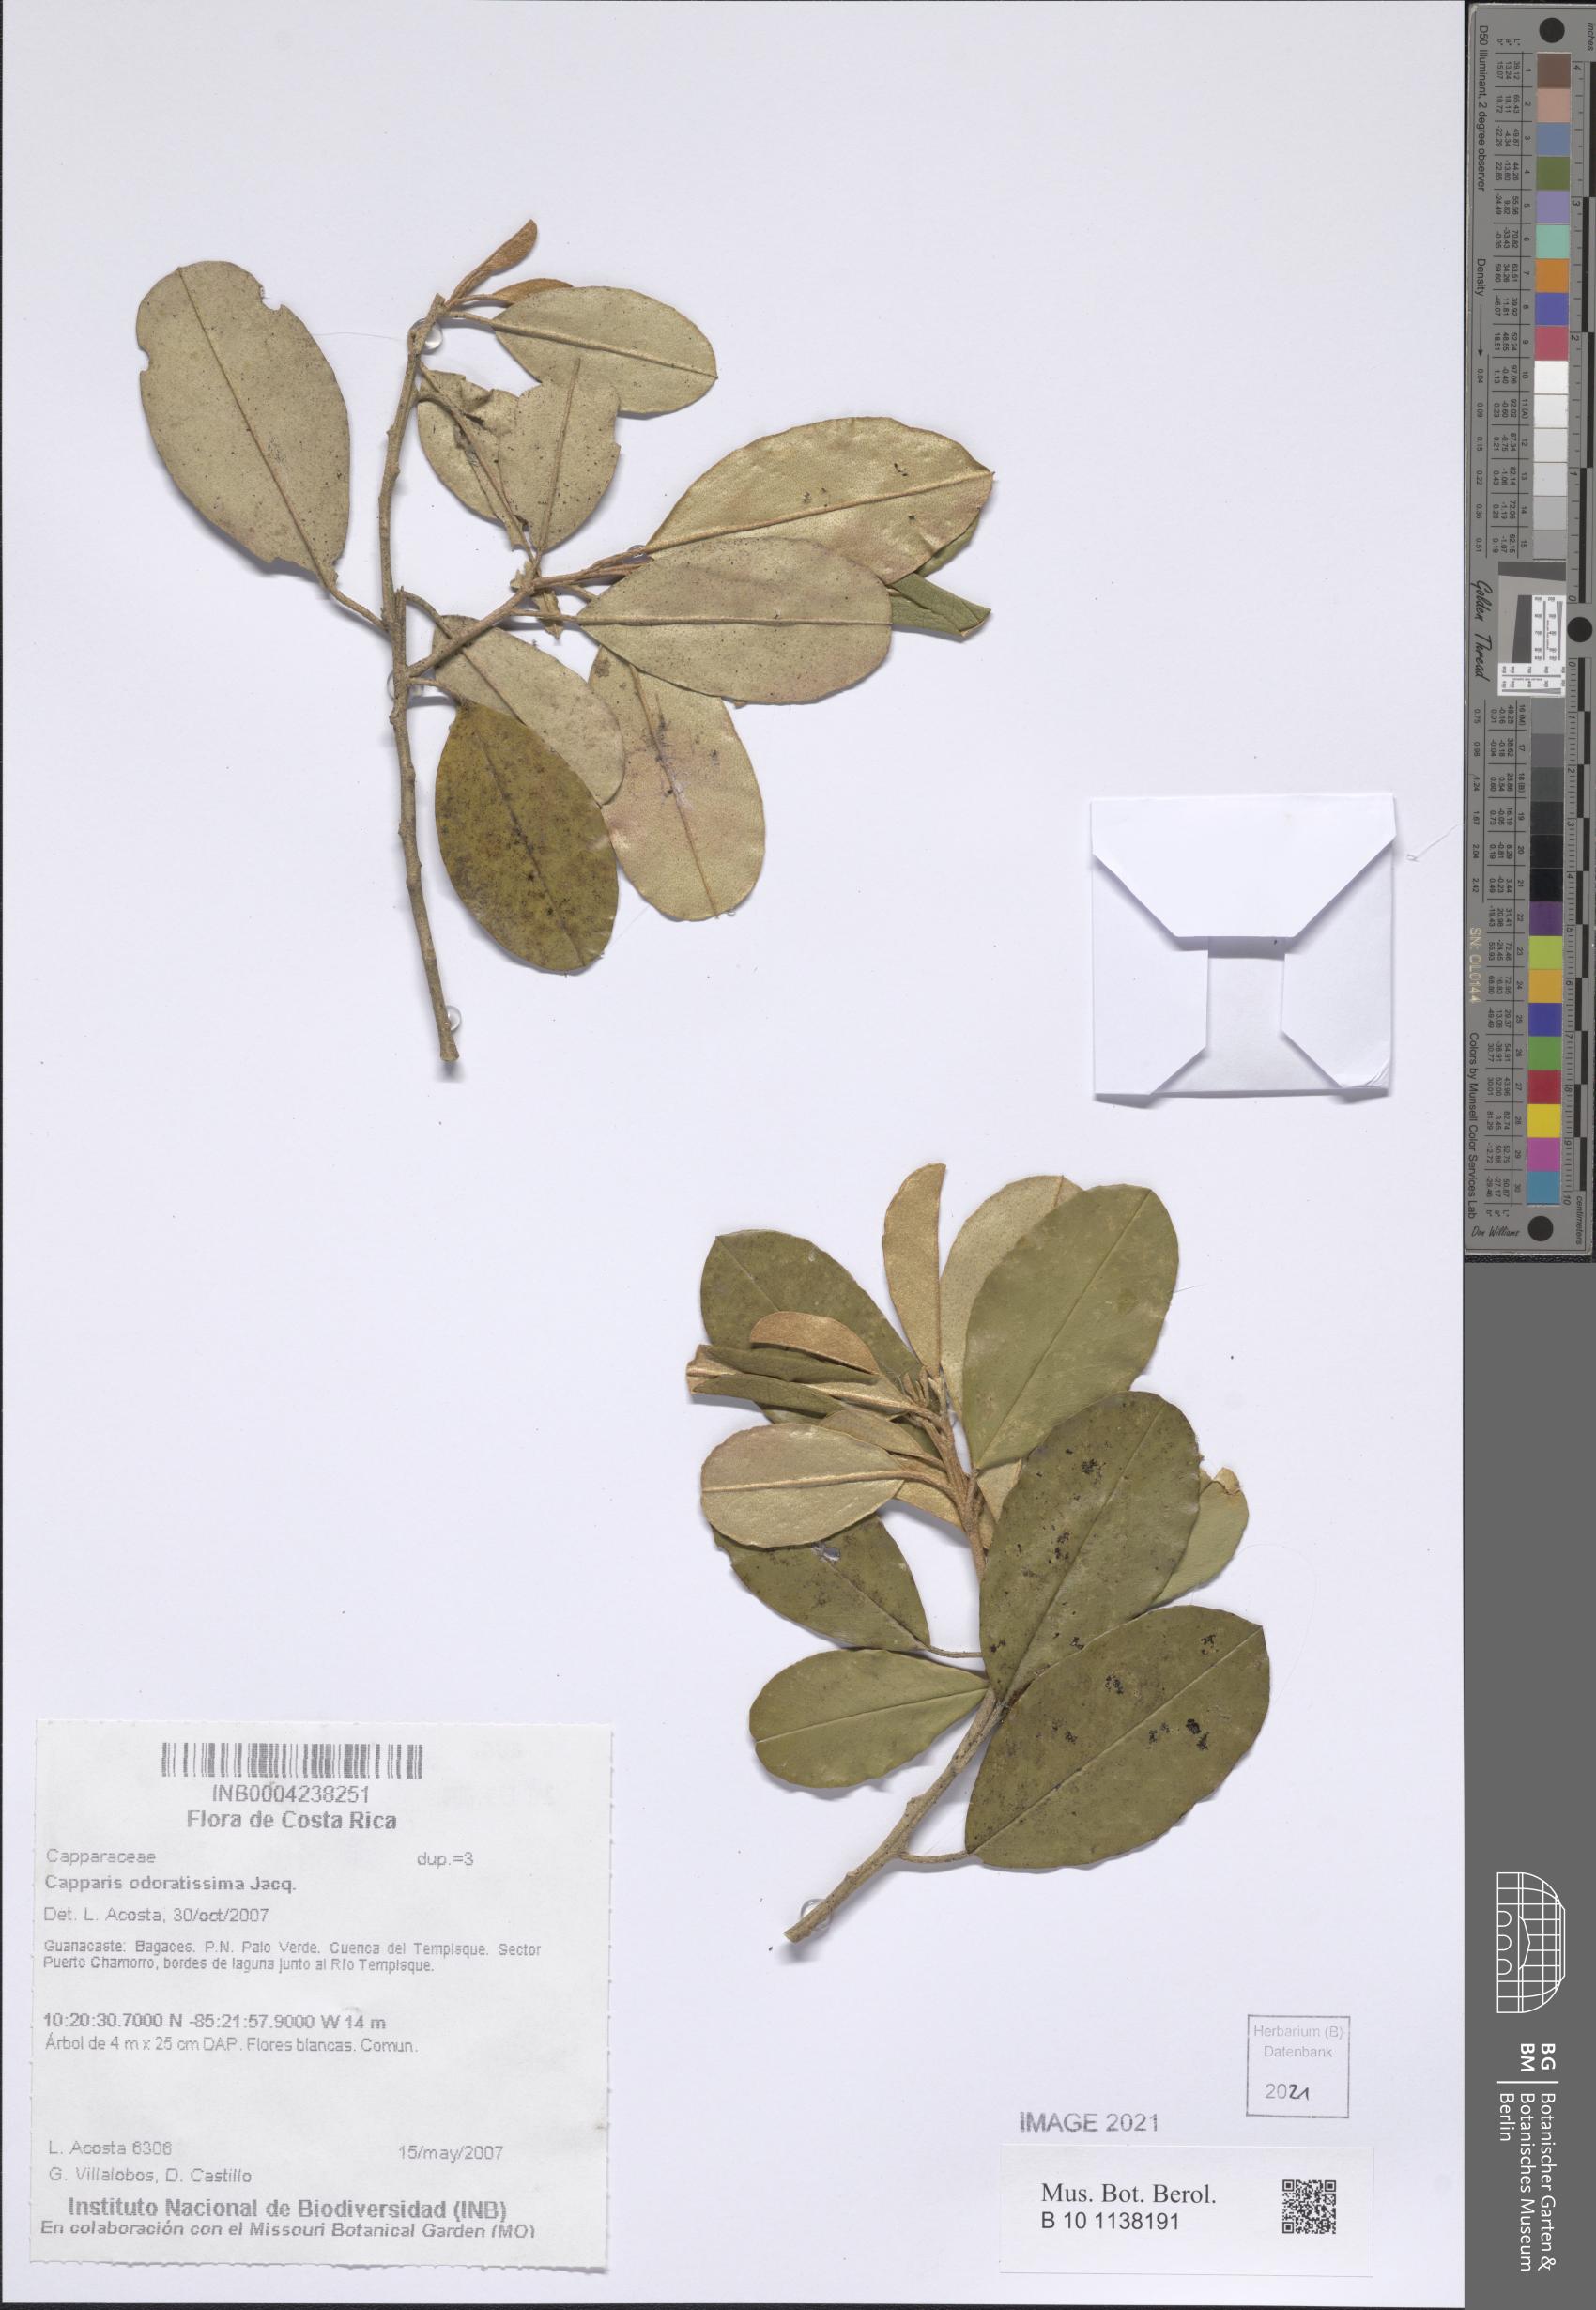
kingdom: Plantae
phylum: Tracheophyta
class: Magnoliopsida
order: Brassicales
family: Capparaceae
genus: Quadrella
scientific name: Quadrella odoratissima
